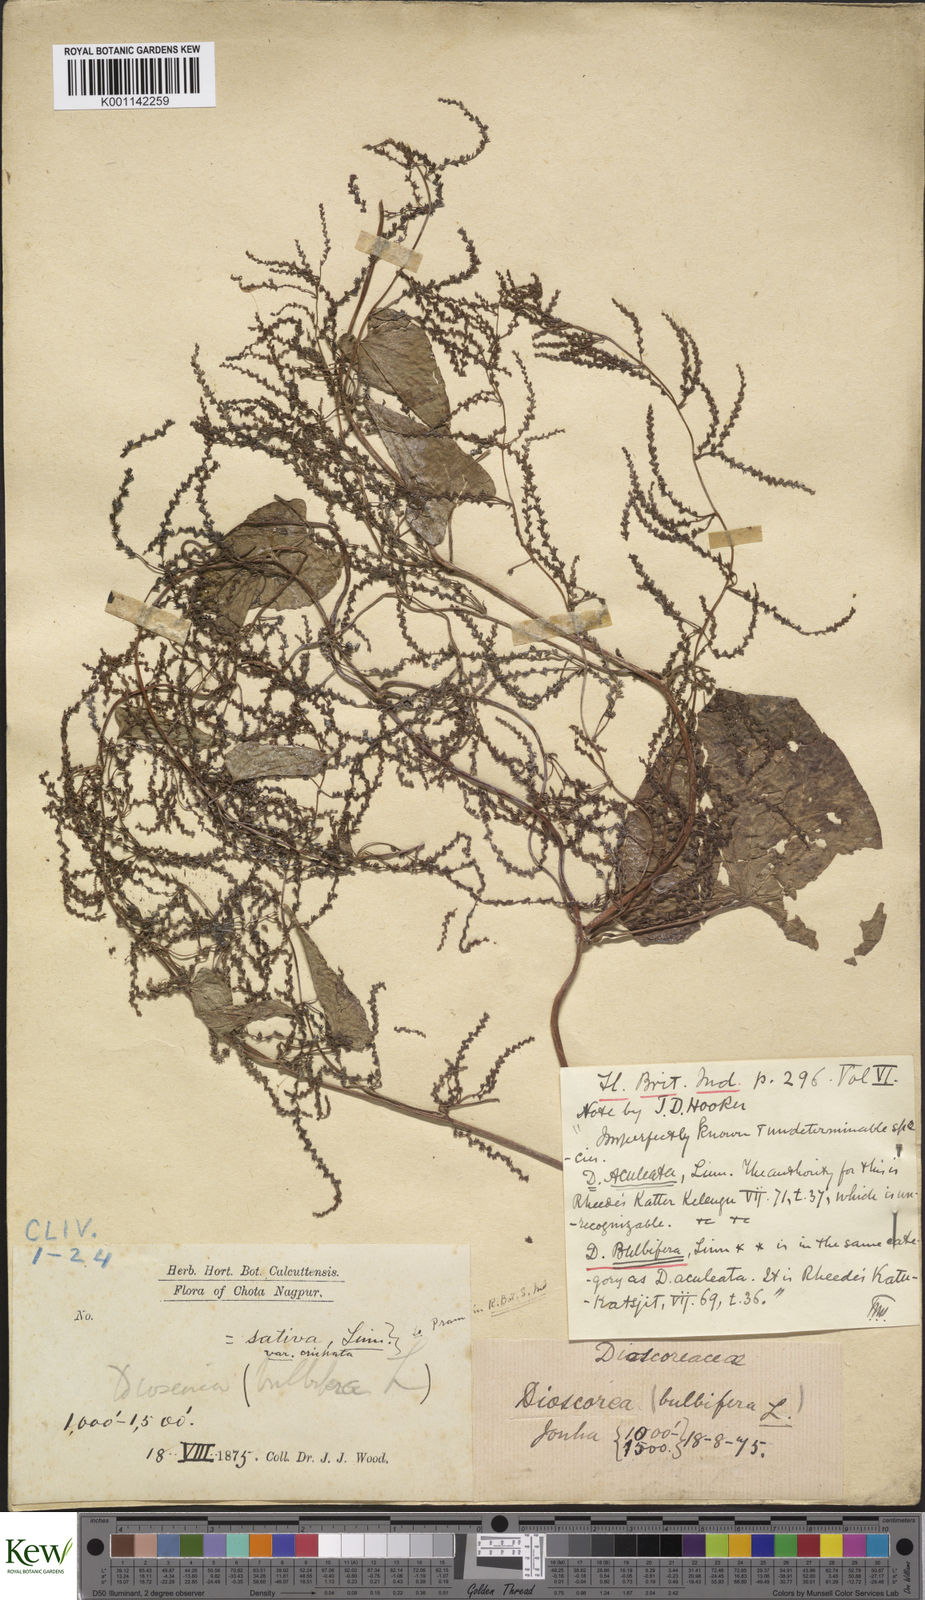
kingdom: Plantae
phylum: Tracheophyta
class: Liliopsida
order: Dioscoreales
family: Dioscoreaceae
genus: Dioscorea
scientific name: Dioscorea bulbifera
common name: Air yam
